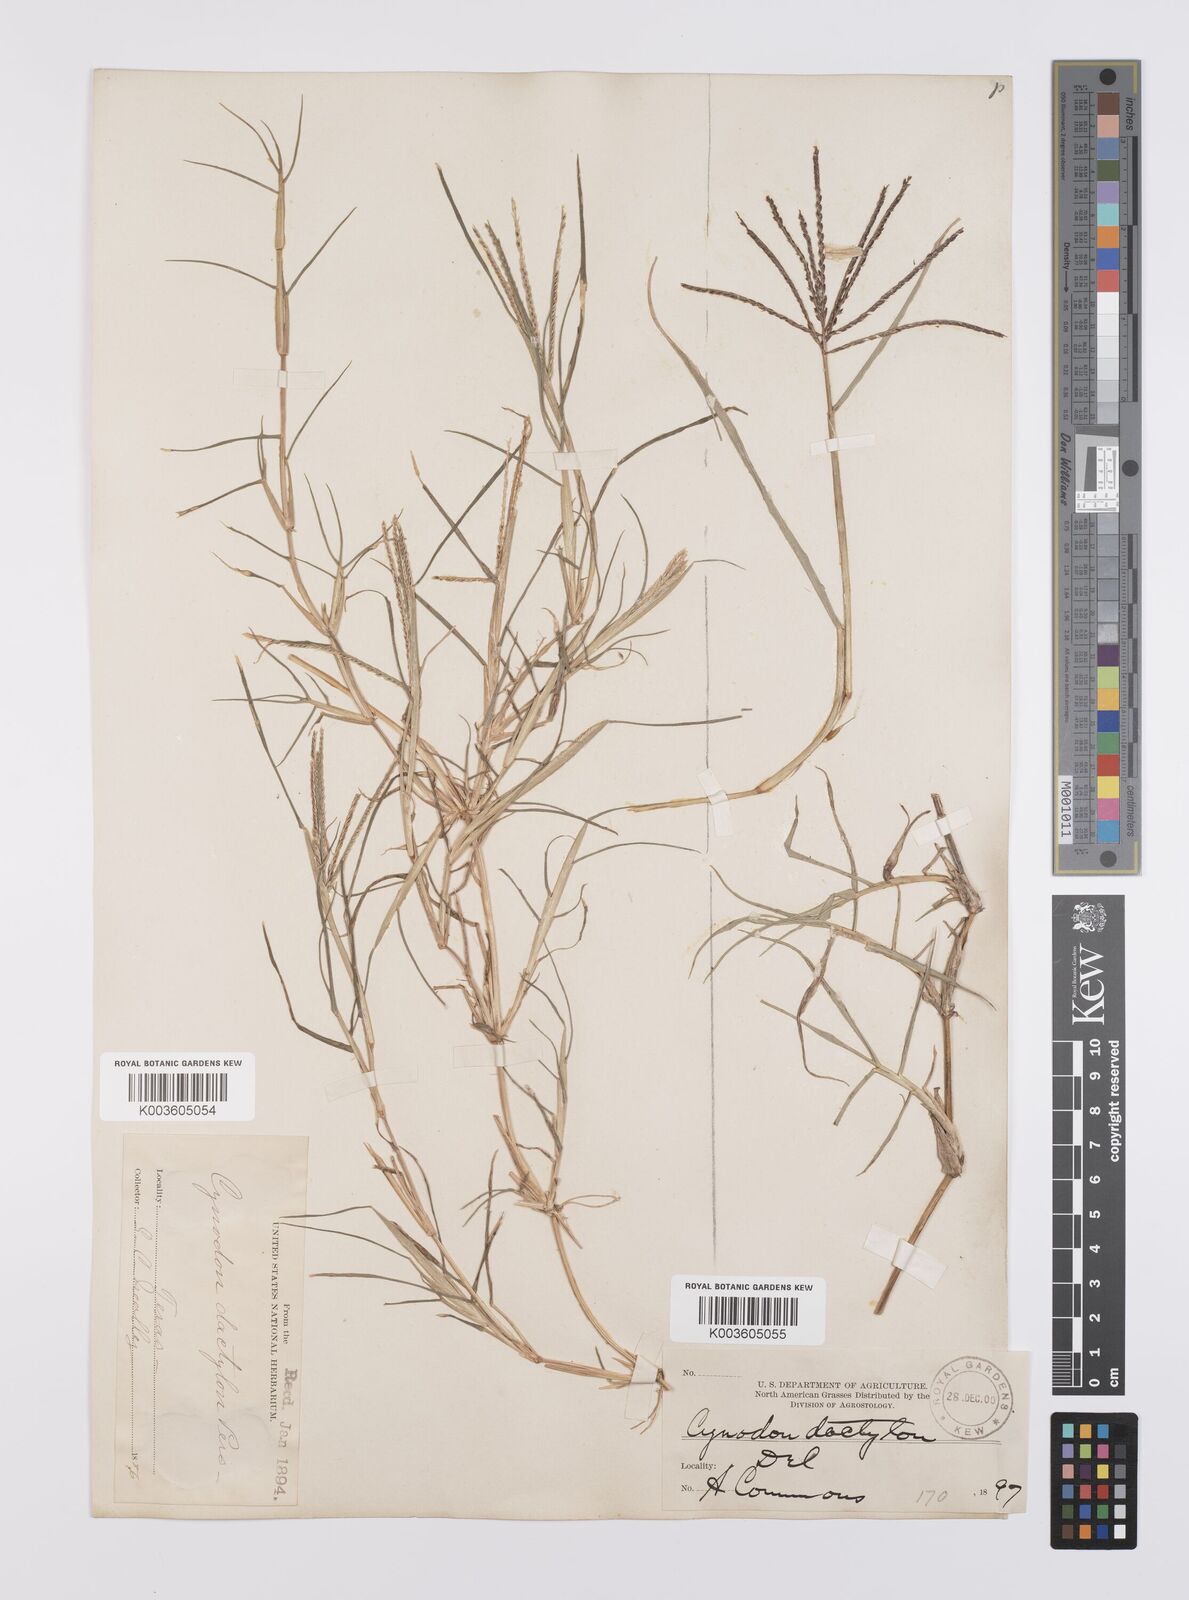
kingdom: Plantae
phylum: Tracheophyta
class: Liliopsida
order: Poales
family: Poaceae
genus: Cynodon
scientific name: Cynodon dactylon
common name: Bermuda grass
